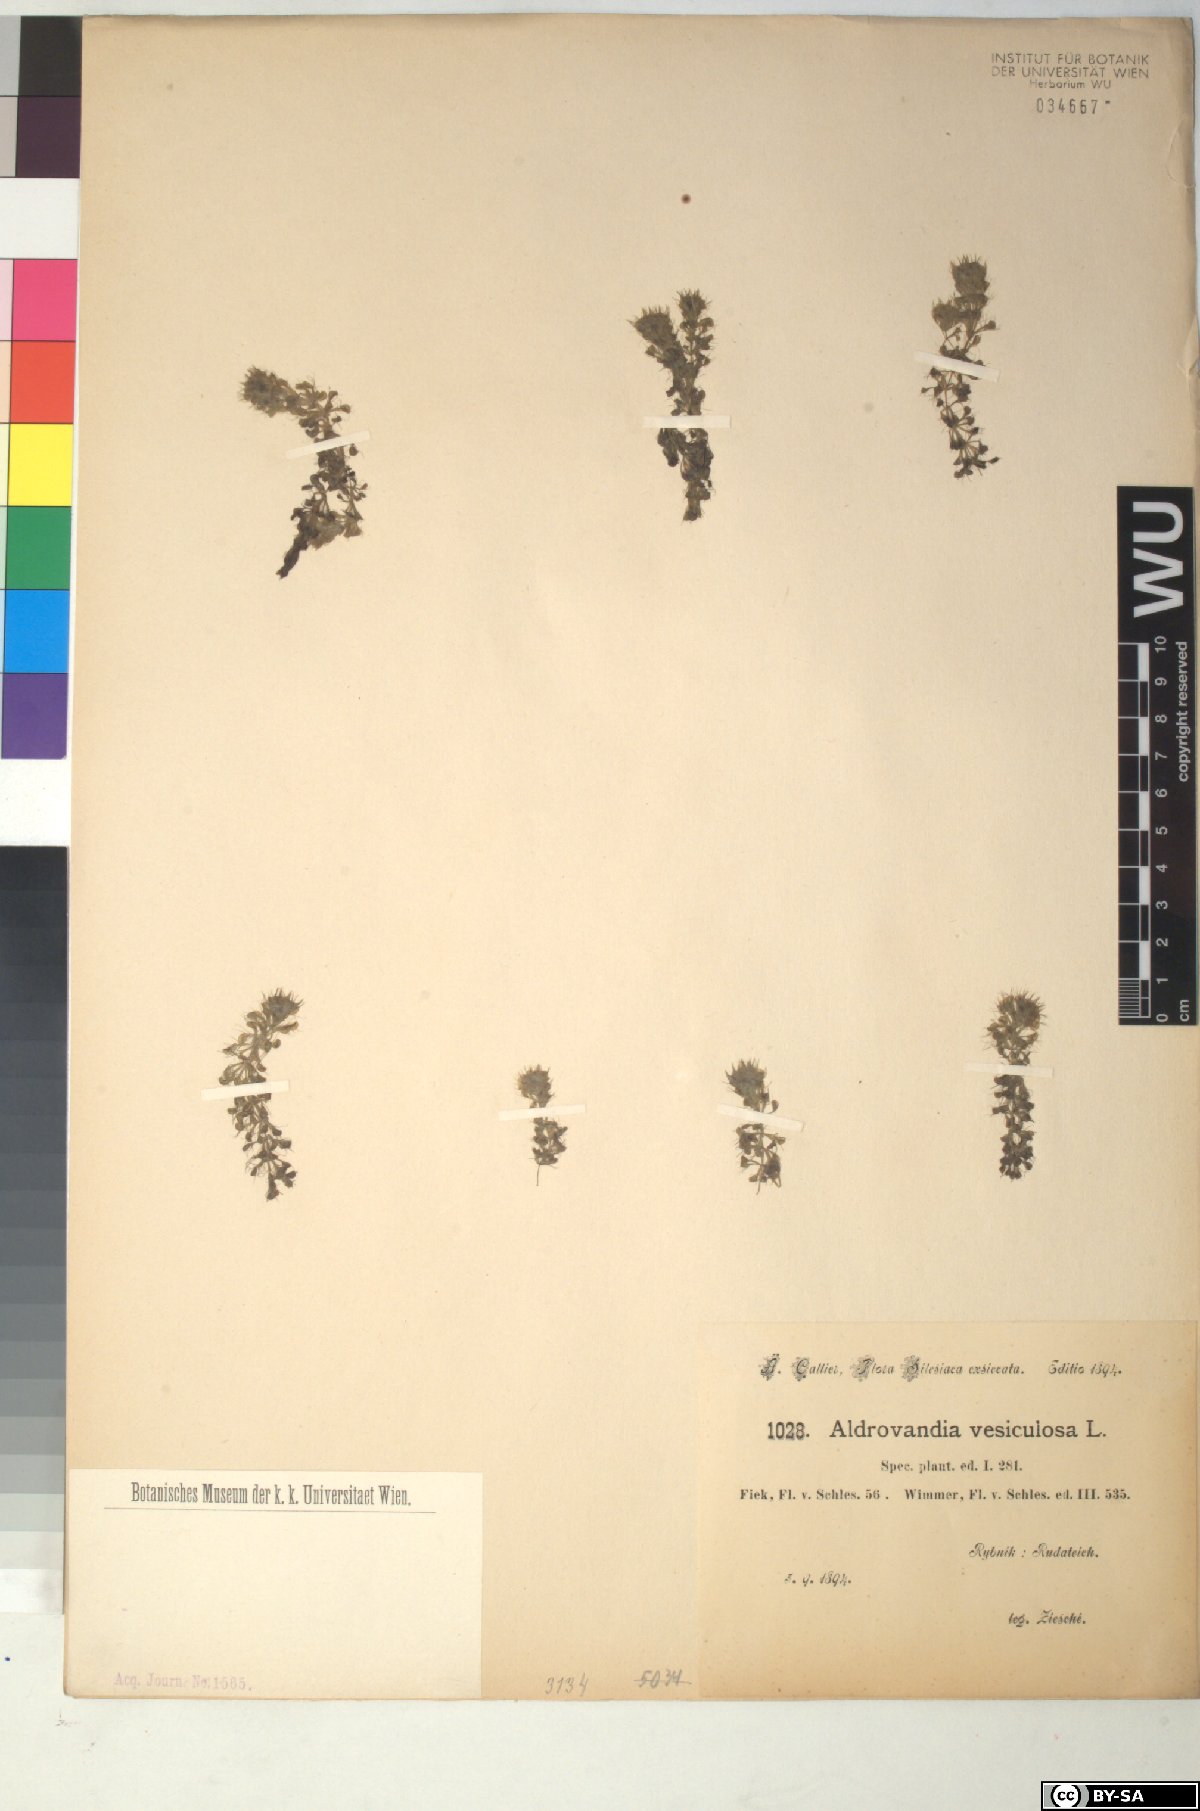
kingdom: Plantae
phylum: Tracheophyta
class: Magnoliopsida
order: Caryophyllales
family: Droseraceae
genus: Aldrovanda
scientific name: Aldrovanda vesiculosa
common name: Waterwheel plant
